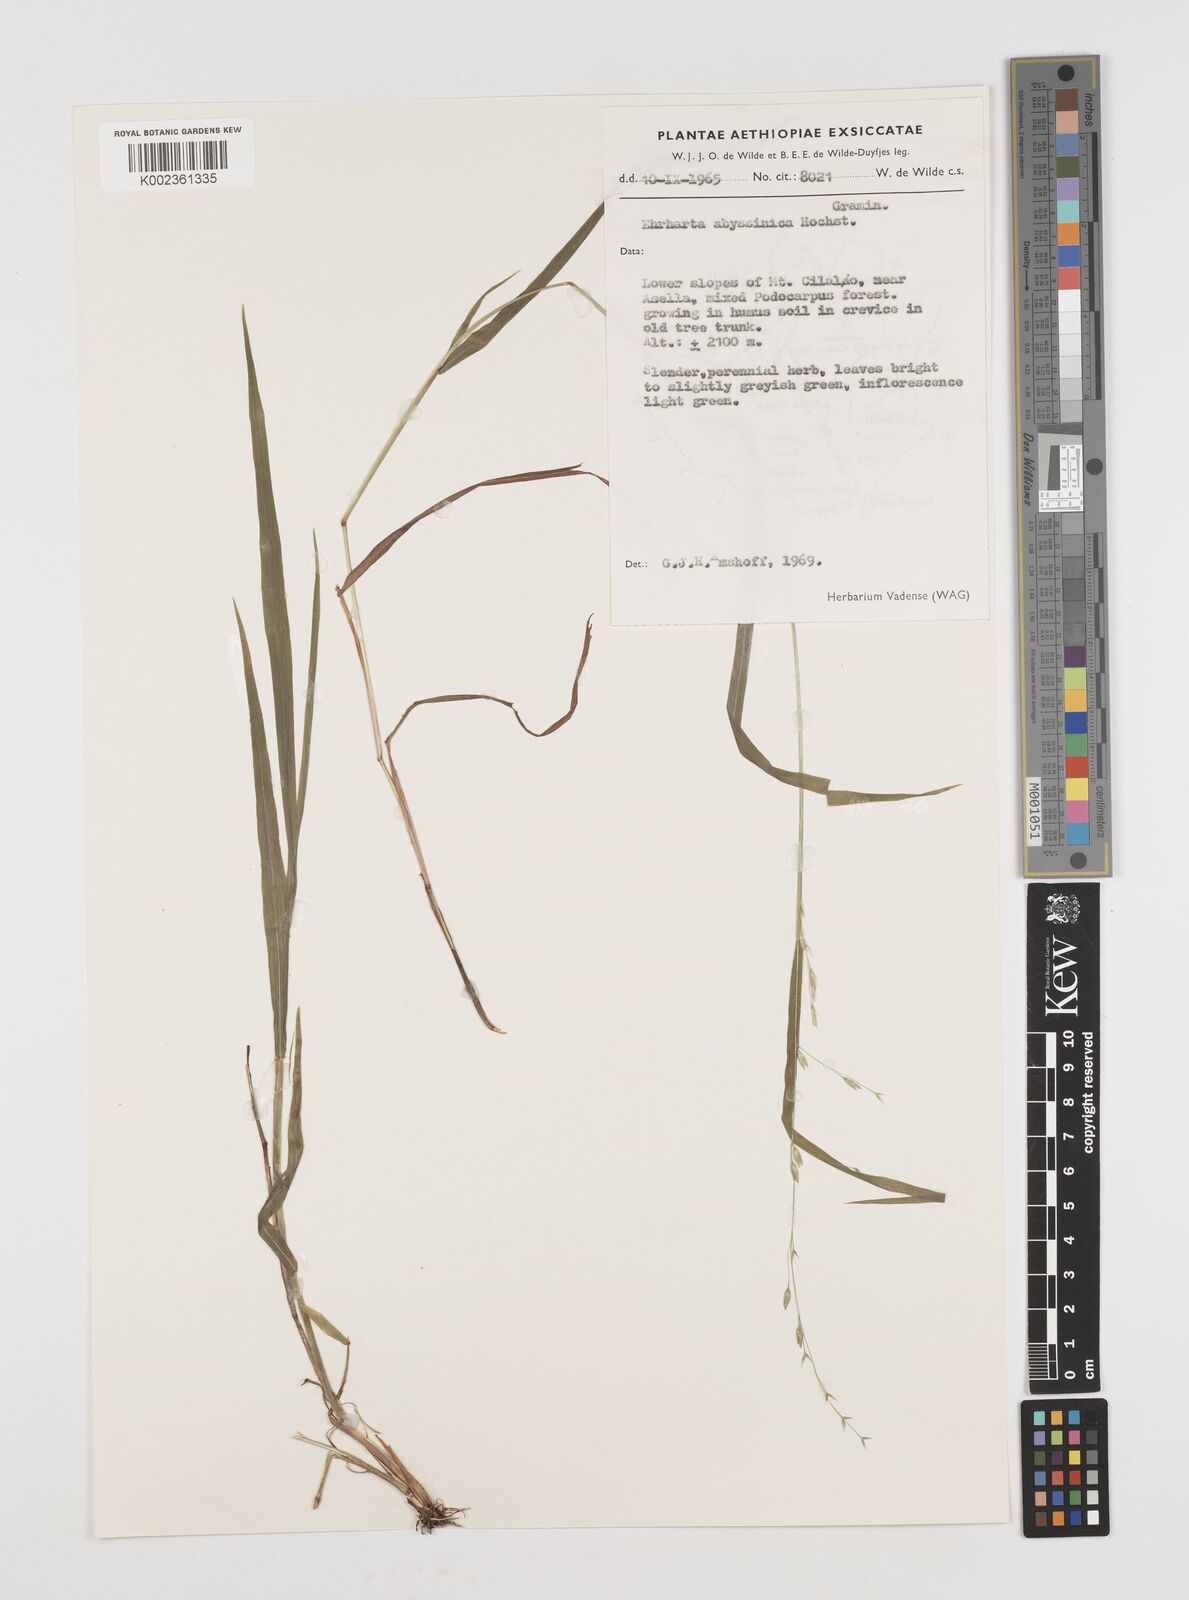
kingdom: Plantae
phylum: Tracheophyta
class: Liliopsida
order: Poales
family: Poaceae
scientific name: Poaceae
